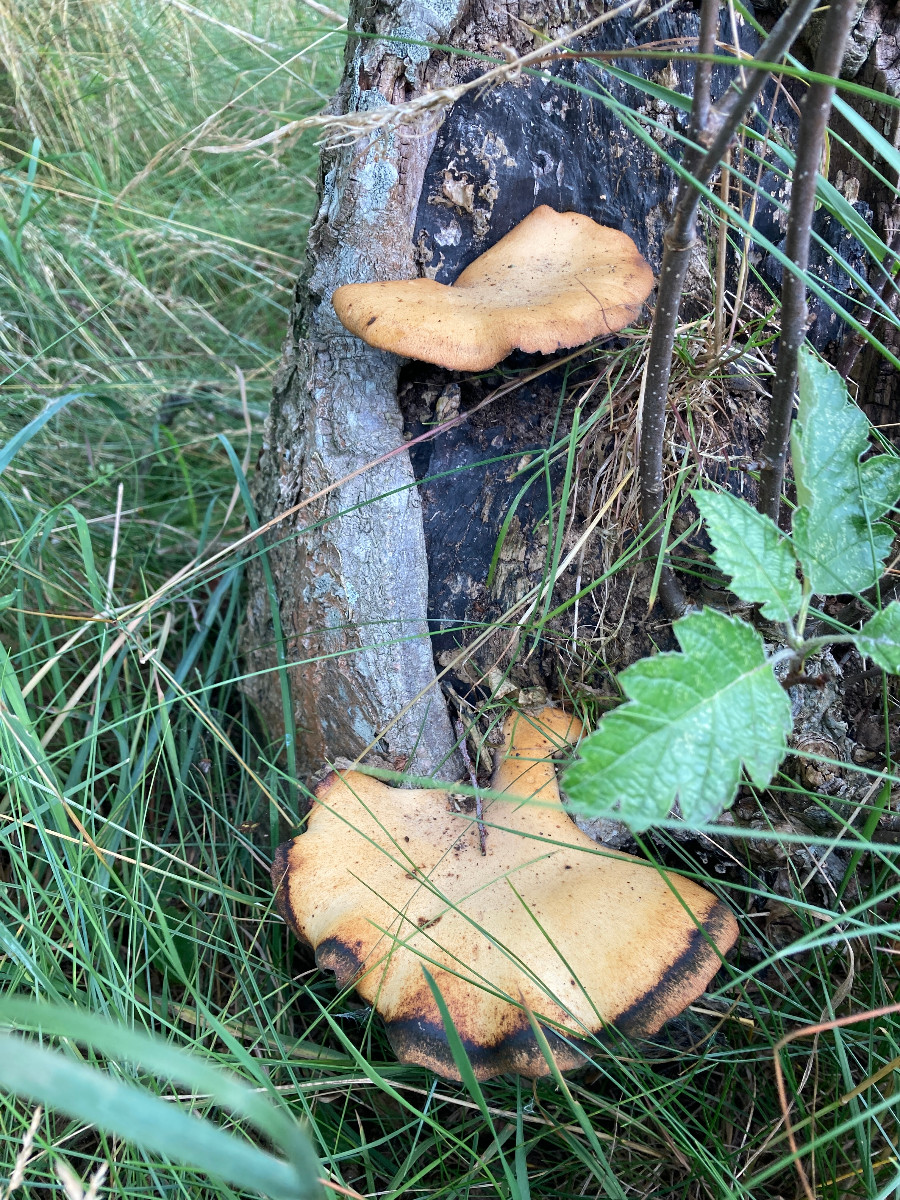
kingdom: Fungi
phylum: Basidiomycota
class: Agaricomycetes
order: Polyporales
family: Polyporaceae
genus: Cerioporus
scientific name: Cerioporus varius
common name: foranderlig stilkporesvamp
